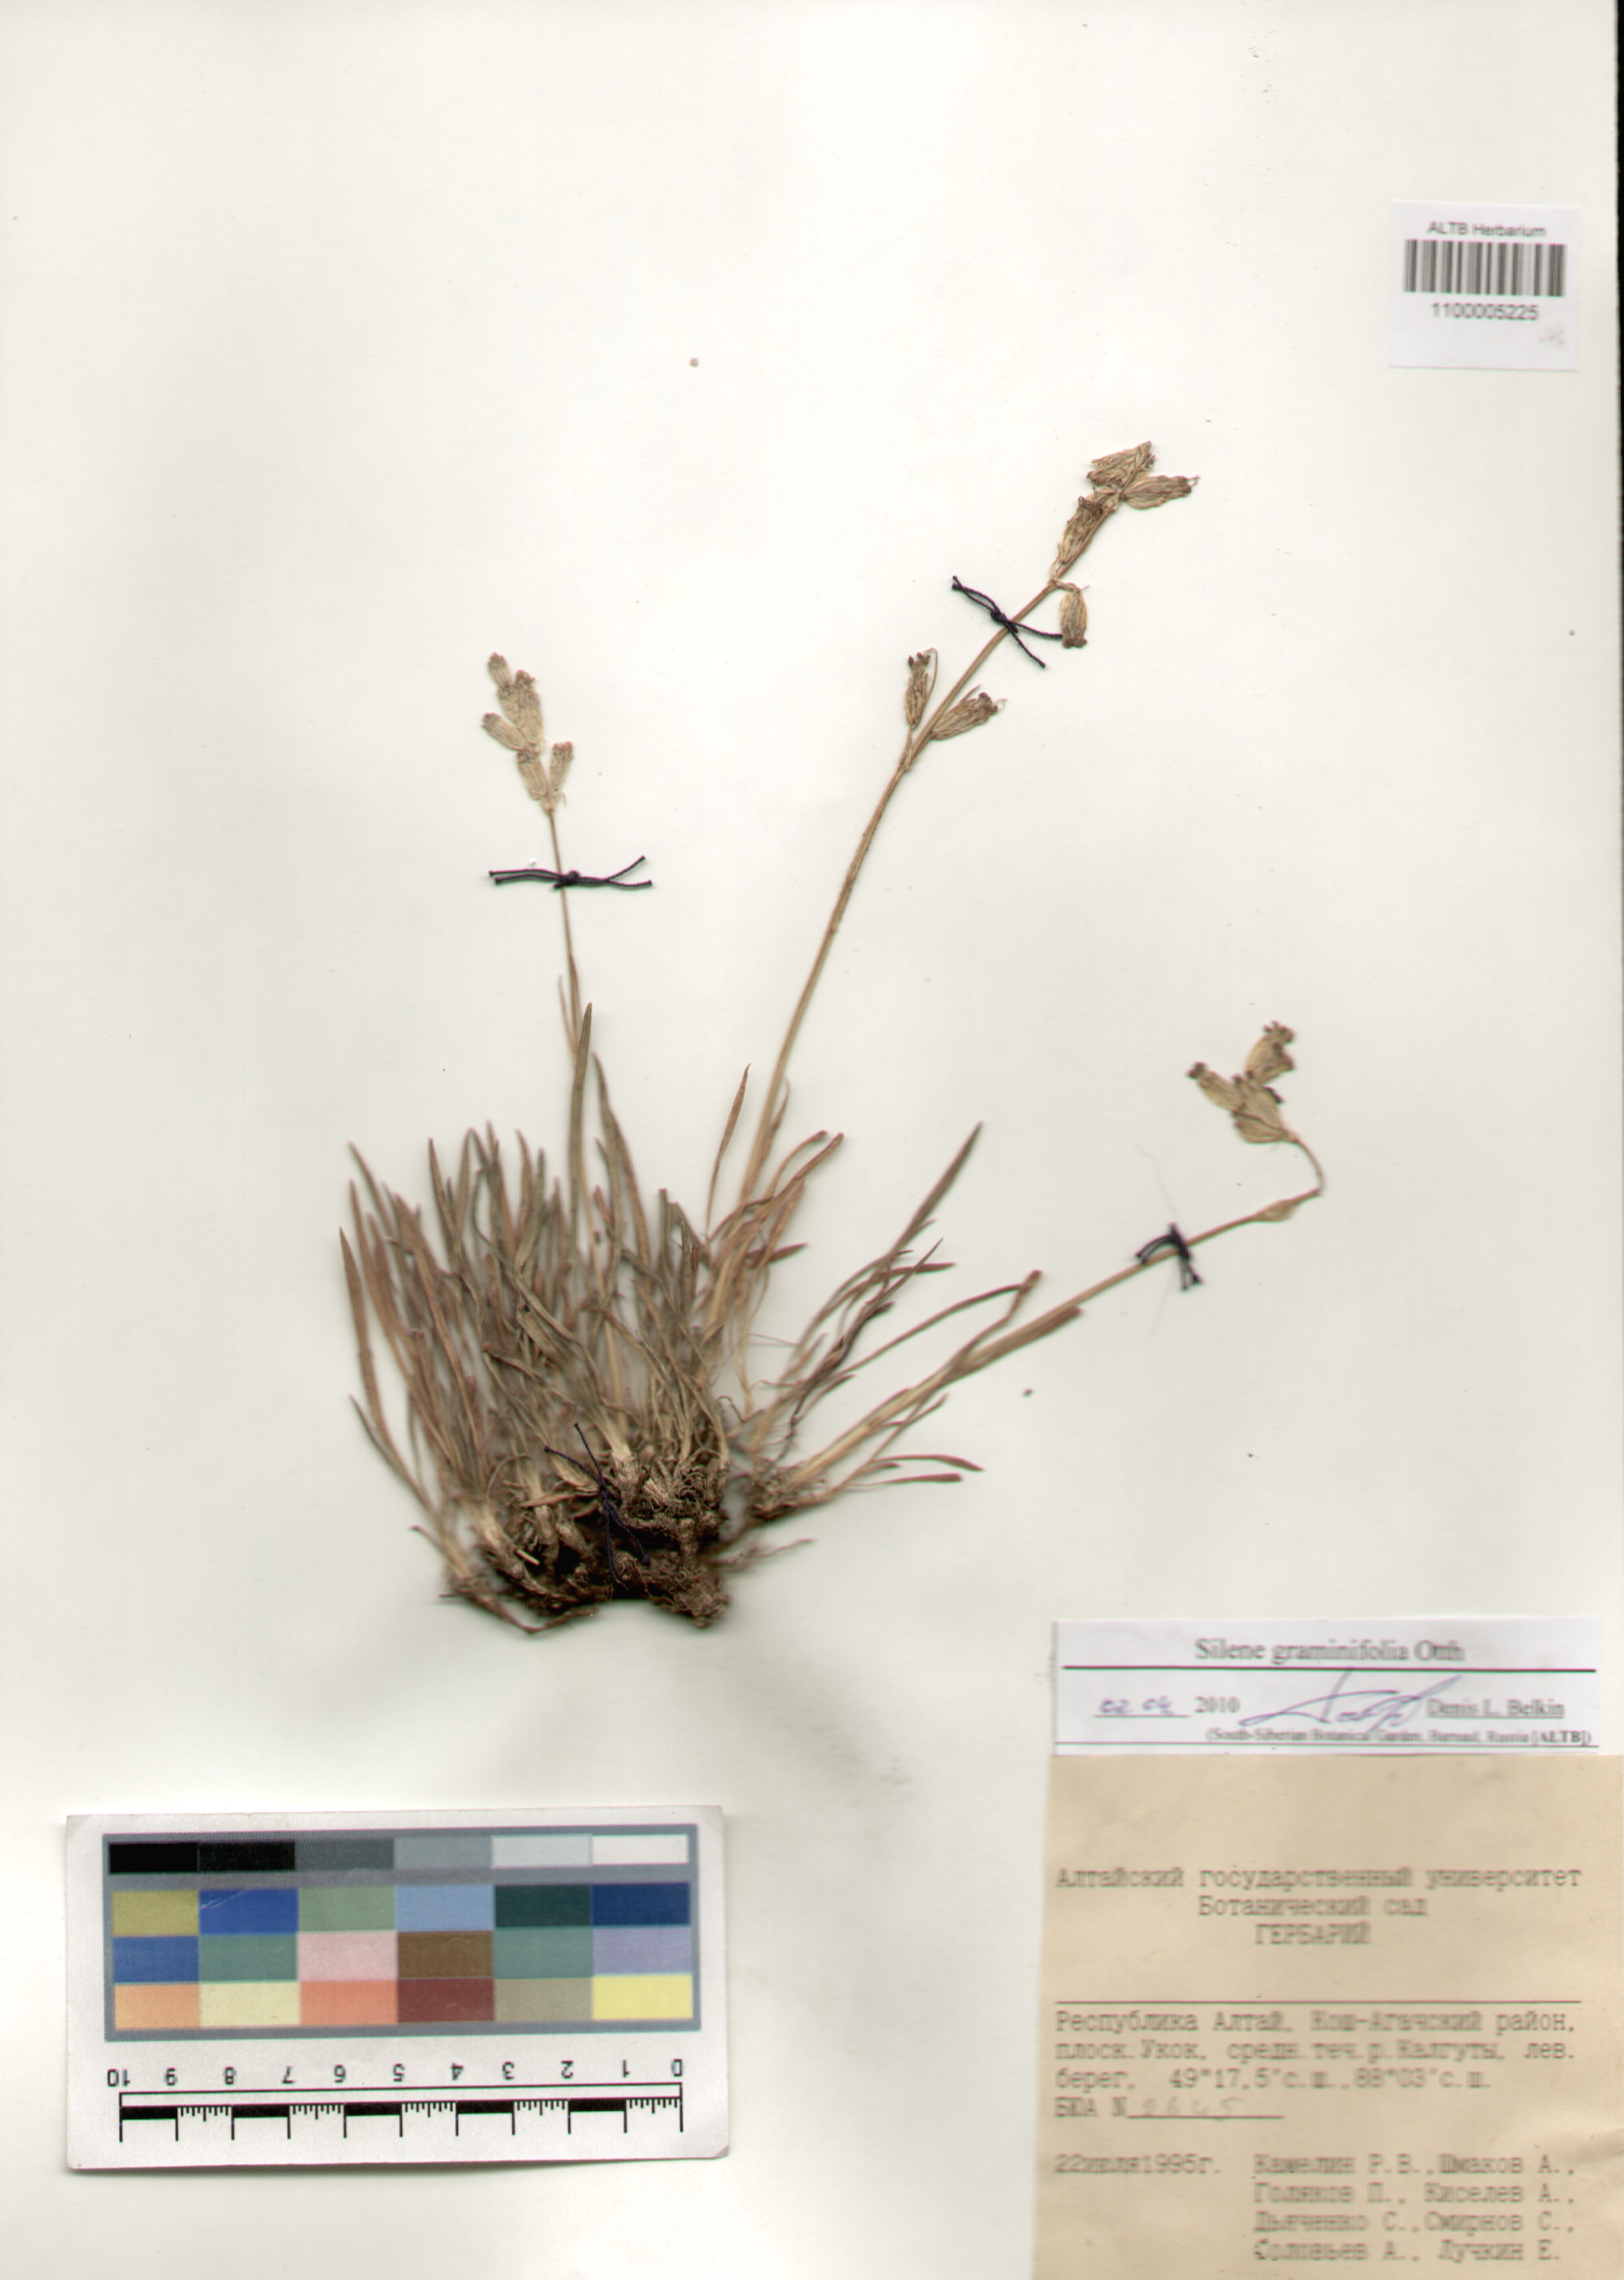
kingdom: Plantae
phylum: Tracheophyta
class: Magnoliopsida
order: Caryophyllales
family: Caryophyllaceae
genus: Silene
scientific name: Silene graminifolia
